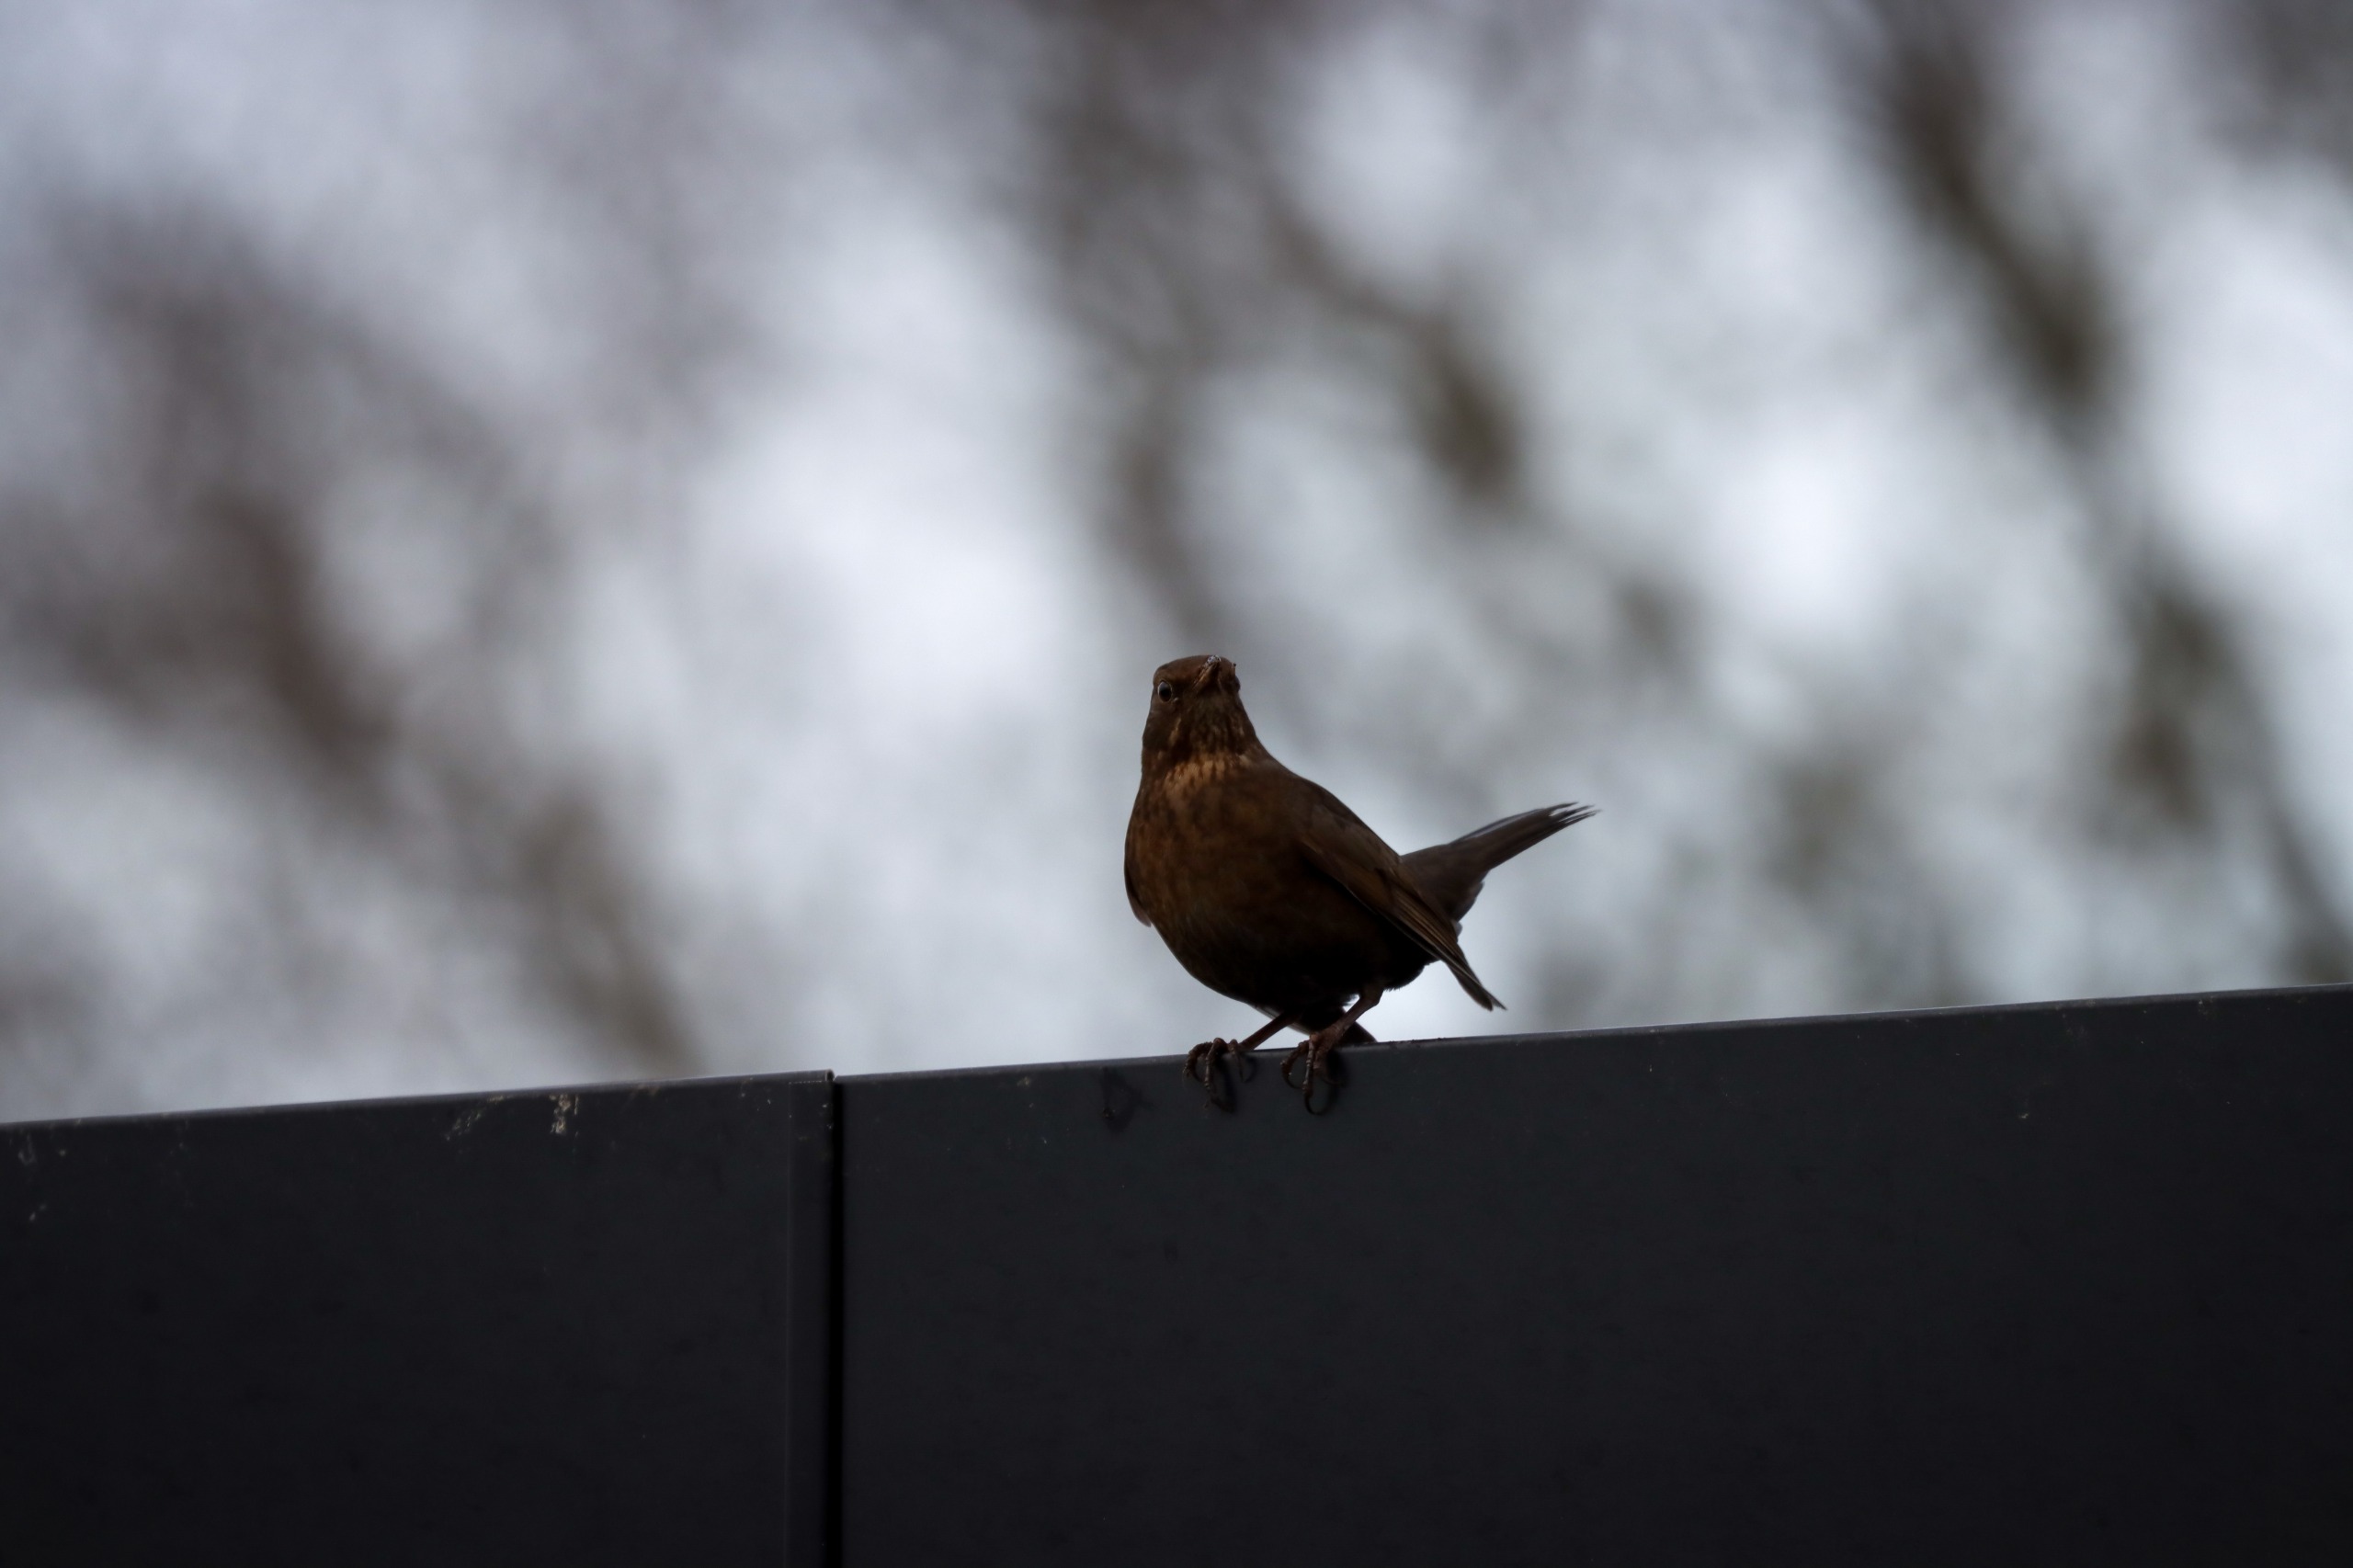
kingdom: Animalia
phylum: Chordata
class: Aves
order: Passeriformes
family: Turdidae
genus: Turdus
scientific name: Turdus merula
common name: Solsort
